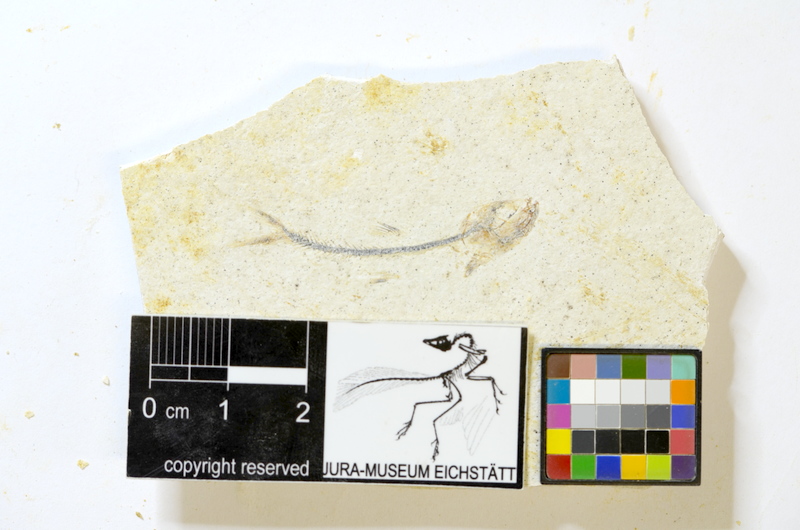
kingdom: Animalia
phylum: Chordata
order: Salmoniformes
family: Orthogonikleithridae
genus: Orthogonikleithrus
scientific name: Orthogonikleithrus hoelli
